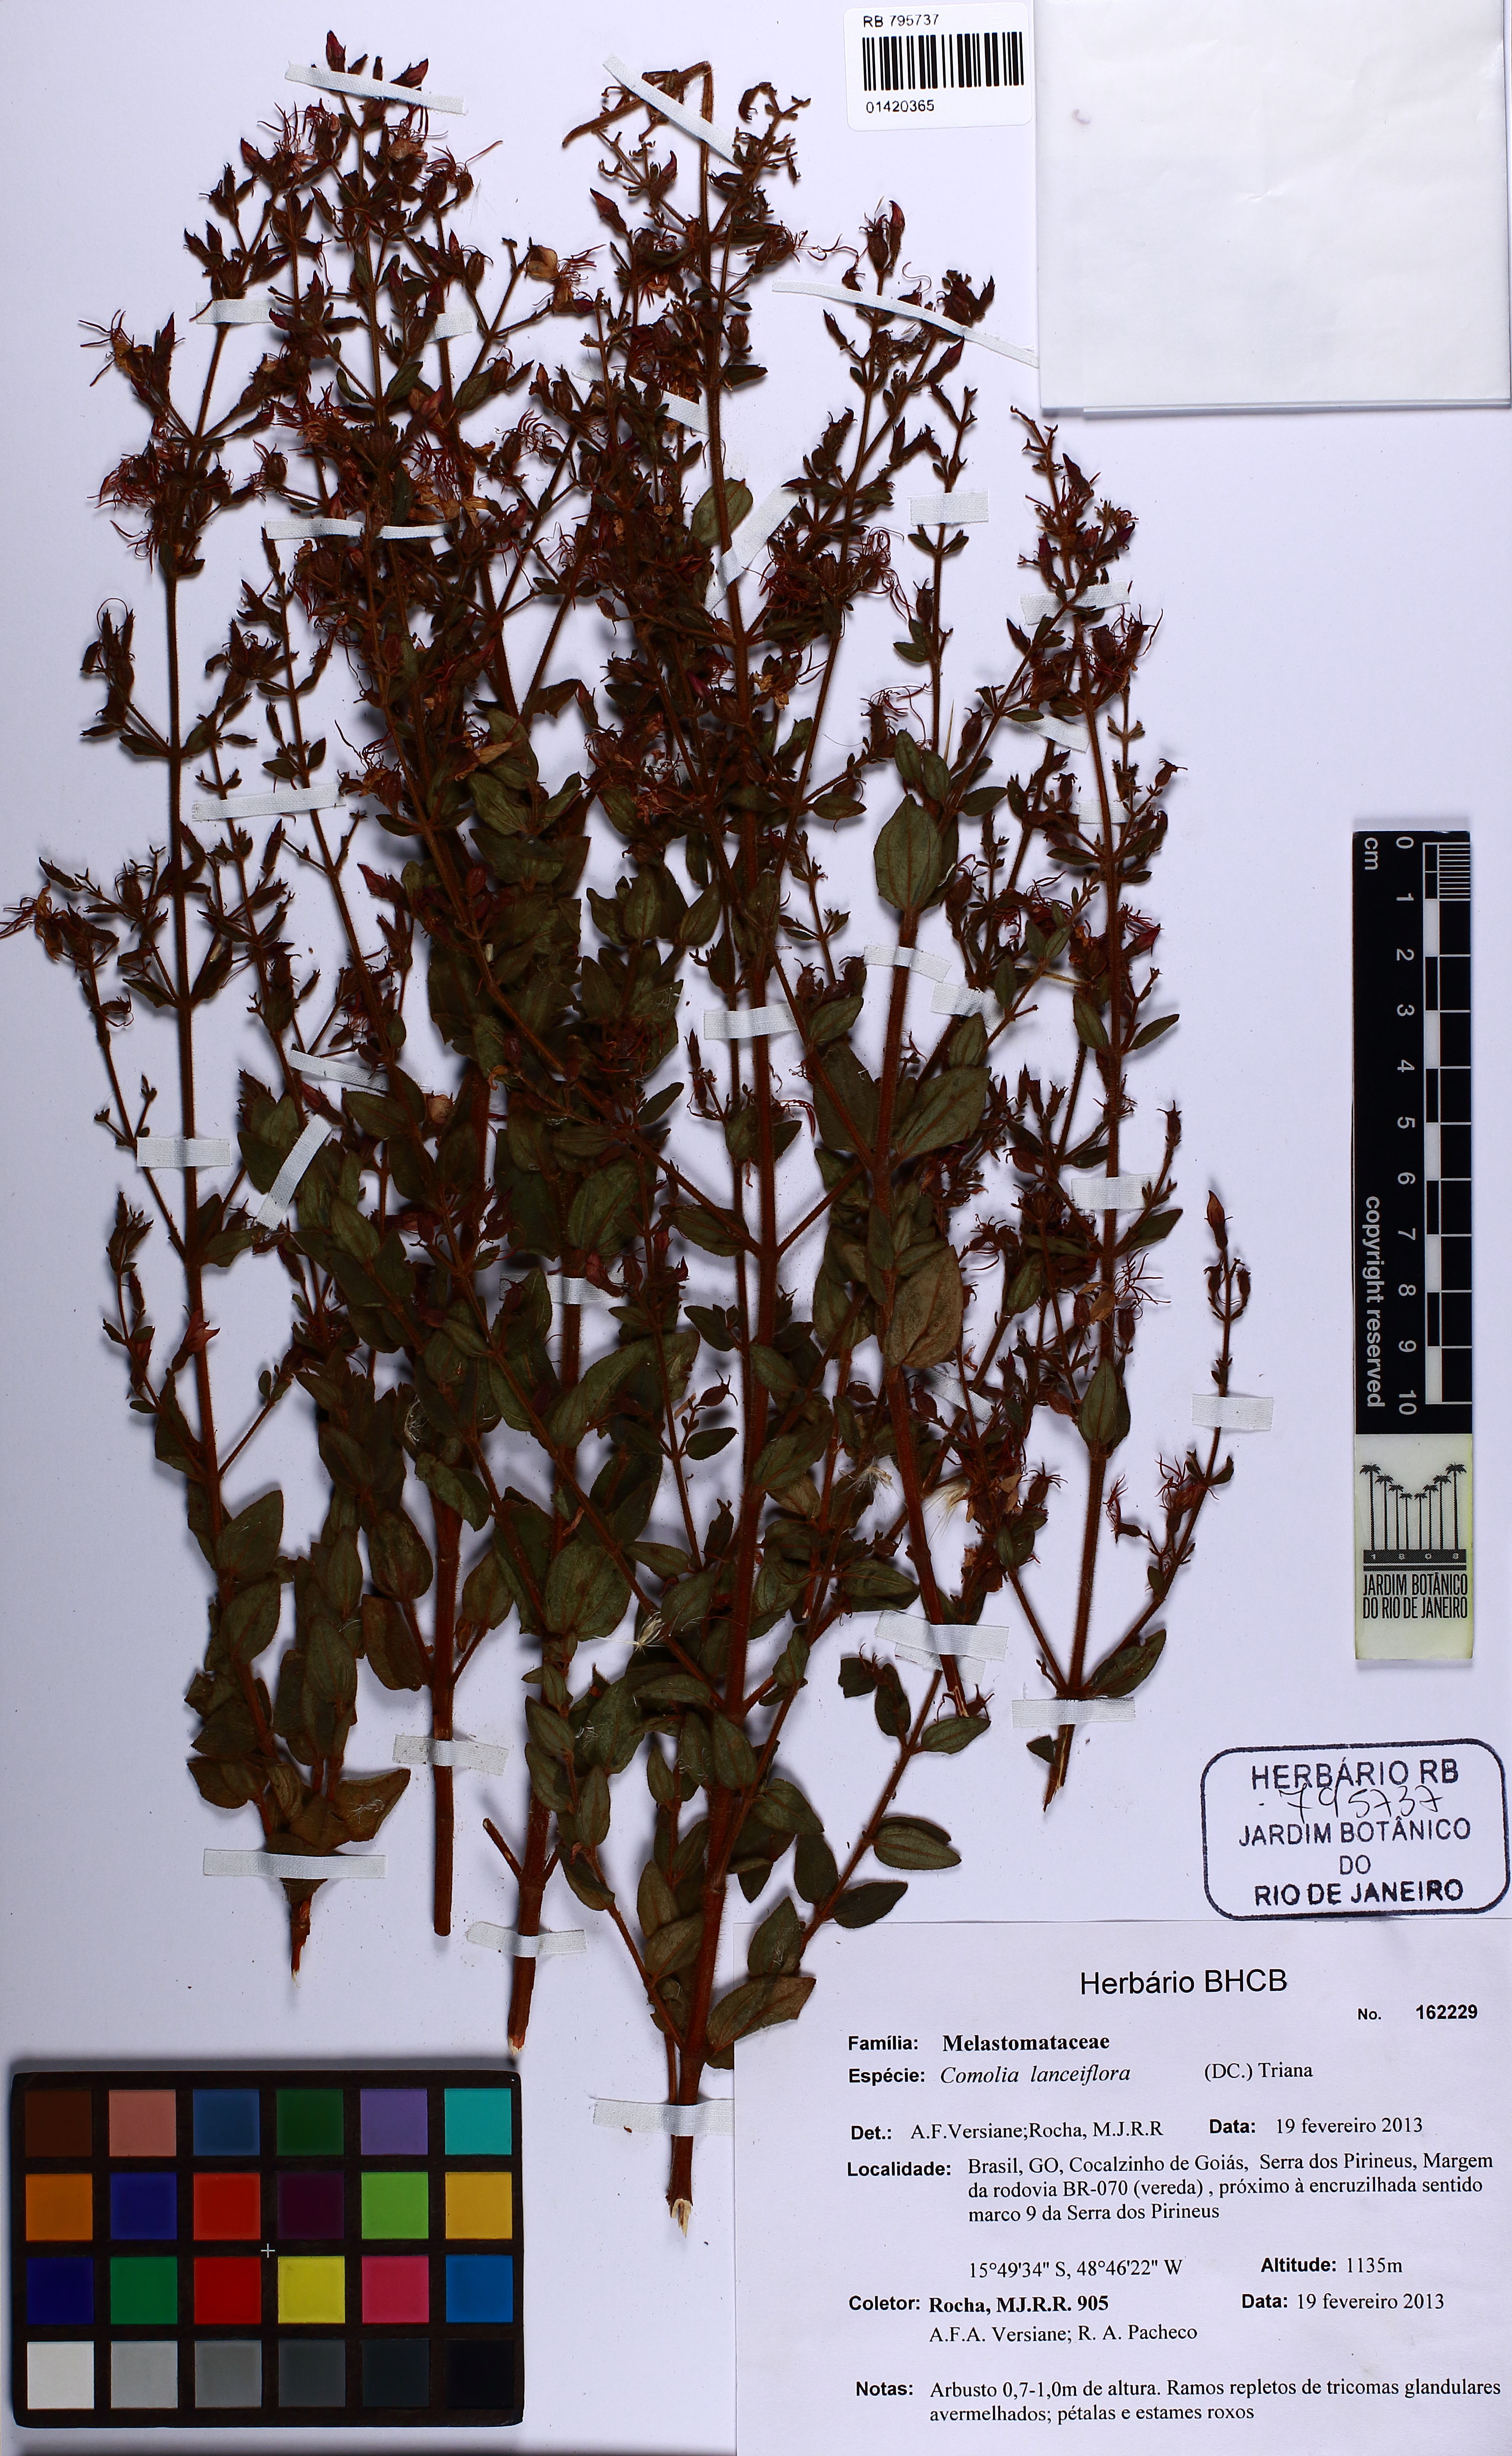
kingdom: Plantae
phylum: Tracheophyta
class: Magnoliopsida
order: Myrtales
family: Melastomataceae
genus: Fritzschia
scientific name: Fritzschia lanceiflora
